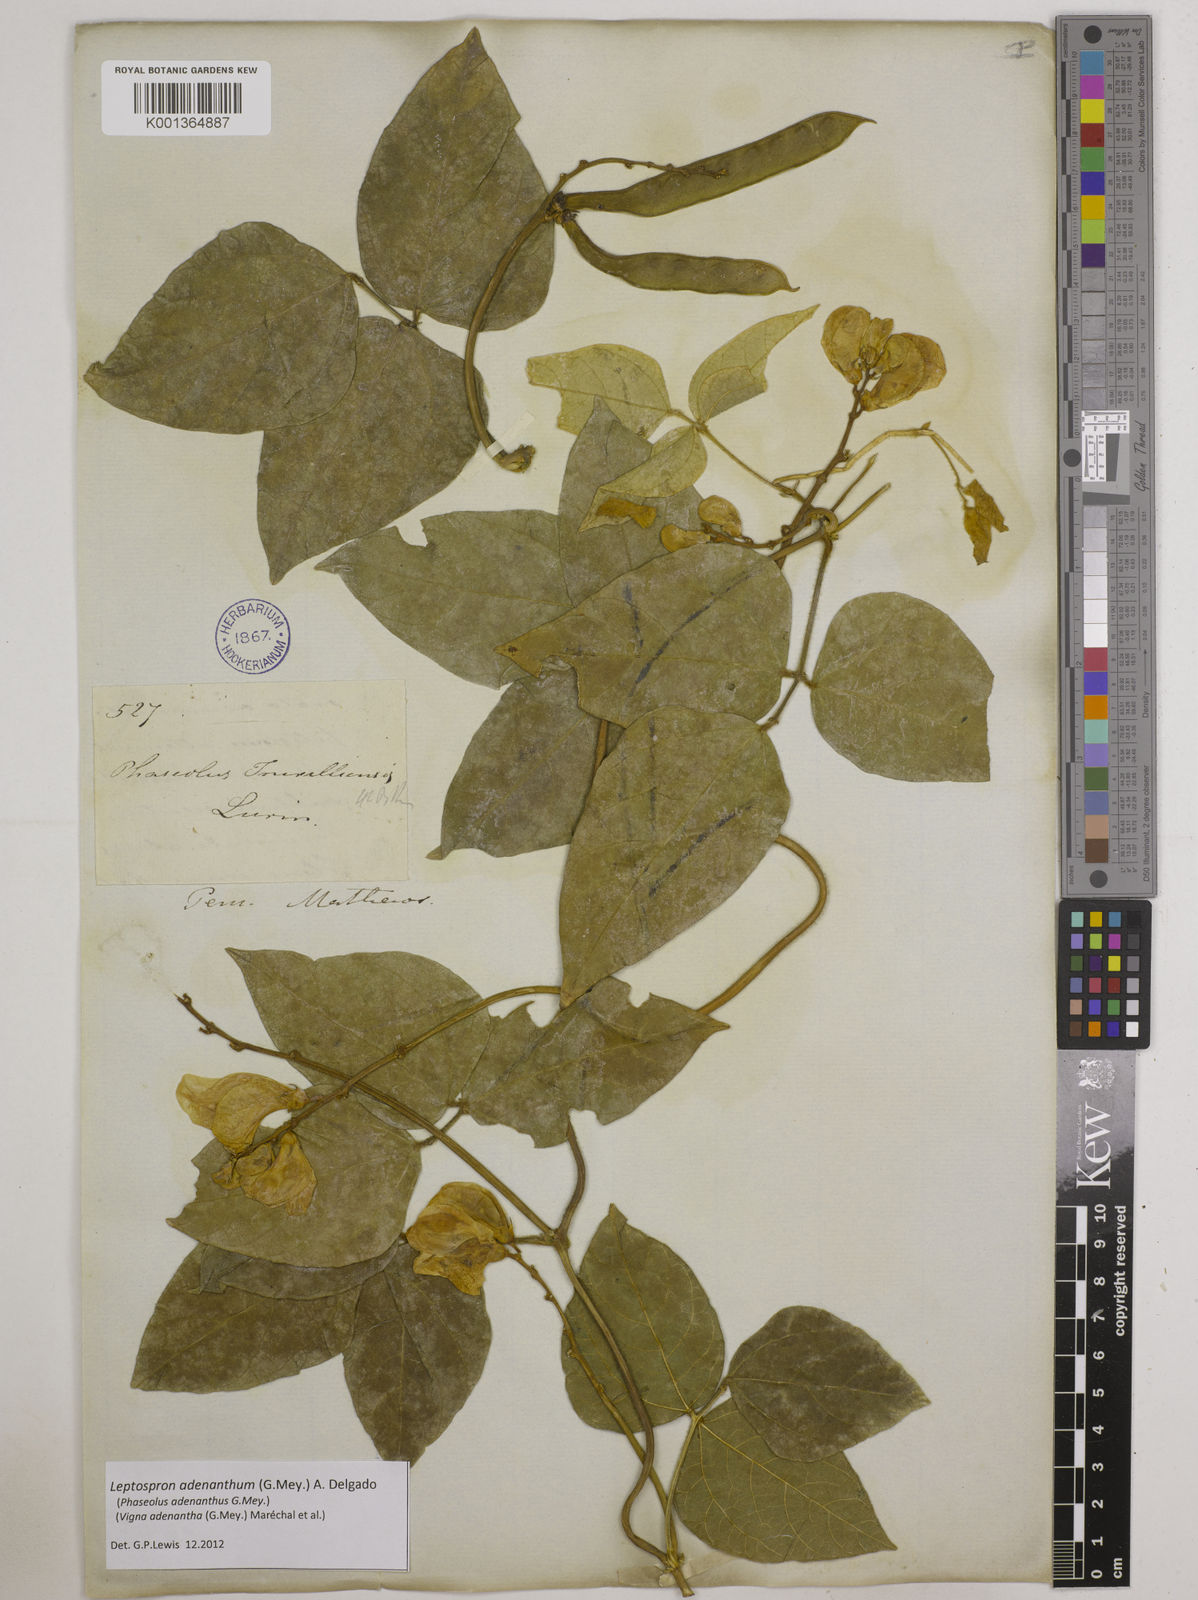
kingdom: Plantae
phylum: Tracheophyta
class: Magnoliopsida
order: Fabales
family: Fabaceae
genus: Leptospron
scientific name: Leptospron adenanthum
